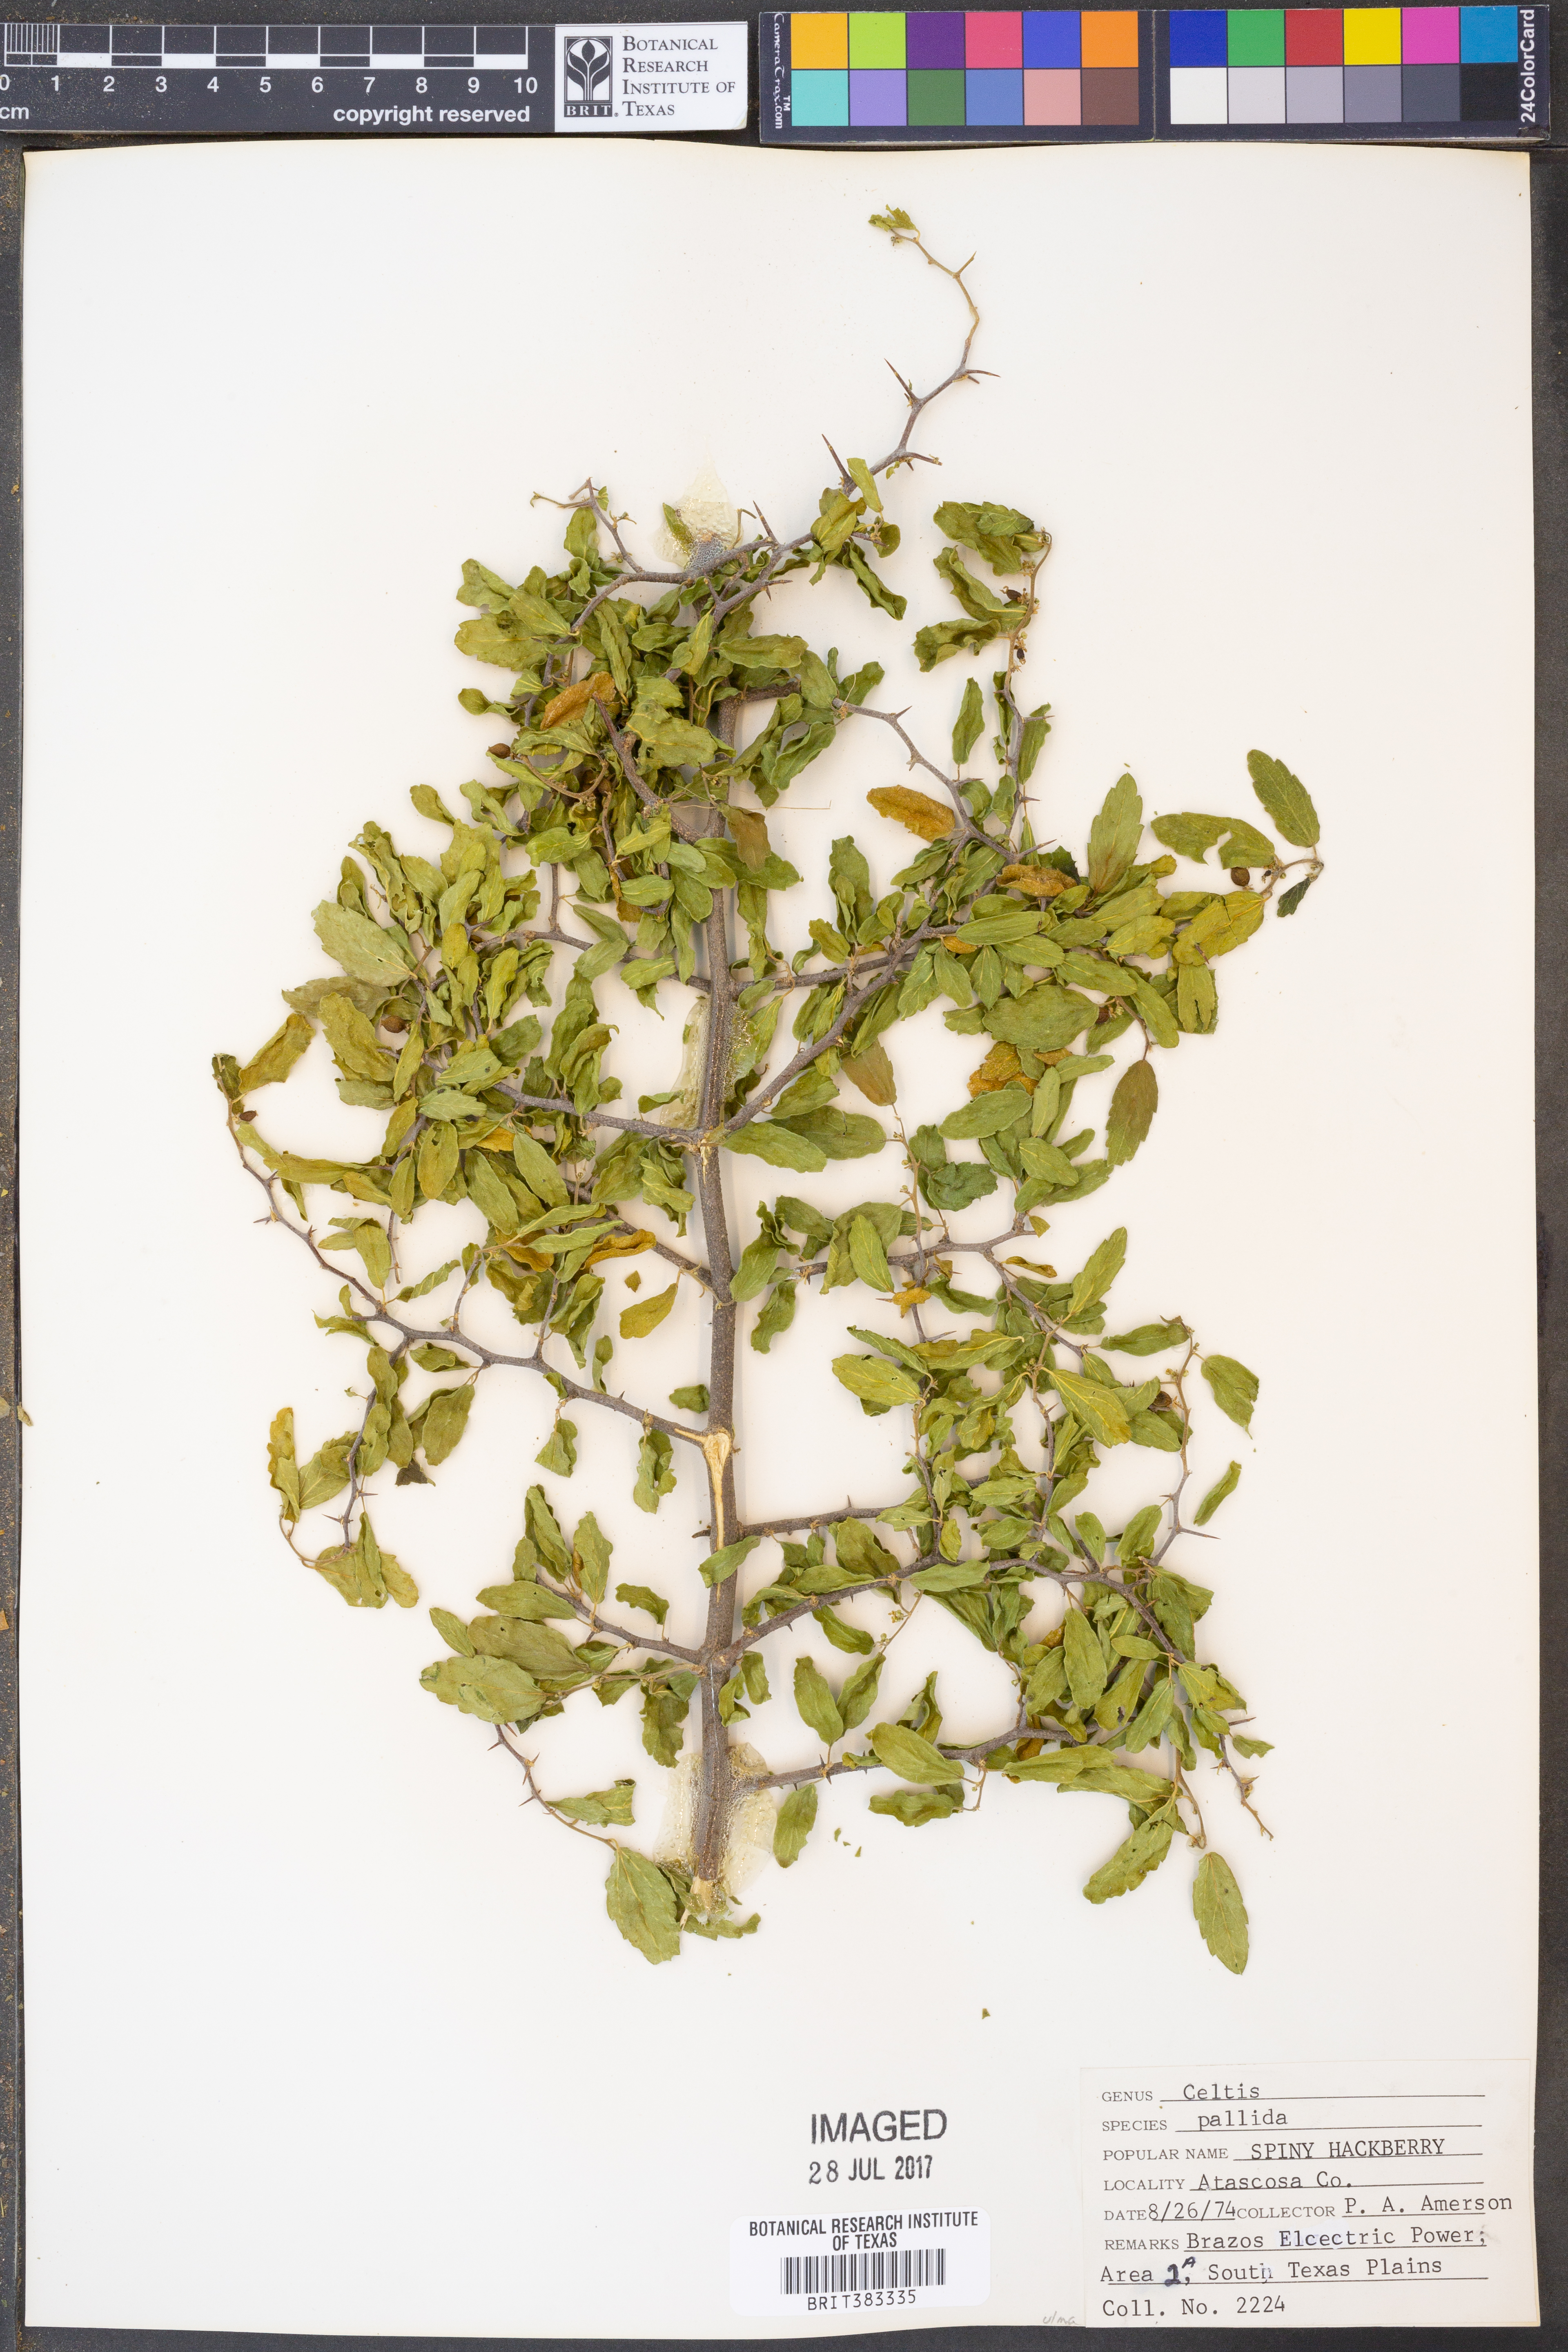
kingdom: Plantae
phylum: Tracheophyta
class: Magnoliopsida
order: Rosales
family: Cannabaceae
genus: Celtis
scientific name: Celtis pallida
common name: Desert hackberry
